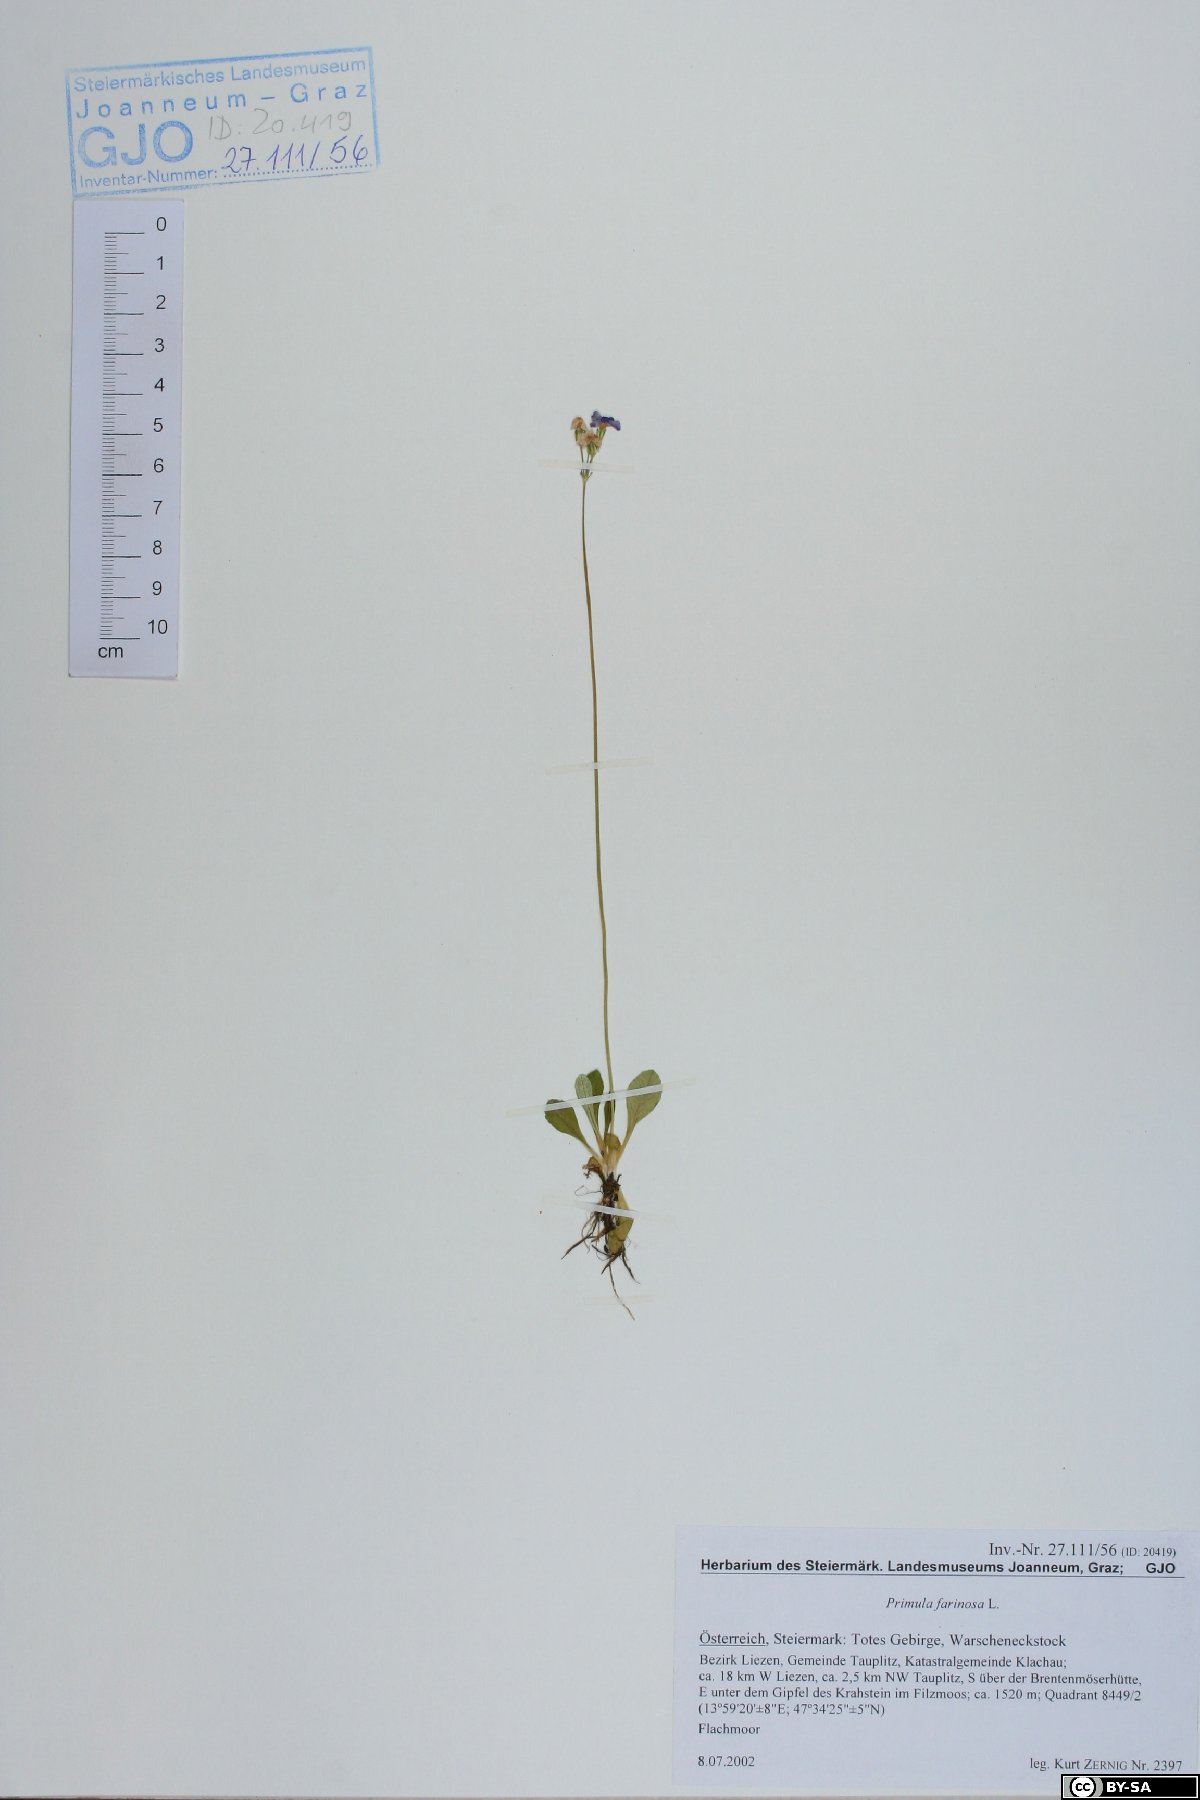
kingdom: Plantae
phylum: Tracheophyta
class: Magnoliopsida
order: Ericales
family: Primulaceae
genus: Primula
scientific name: Primula farinosa
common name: Bird's-eye primrose
